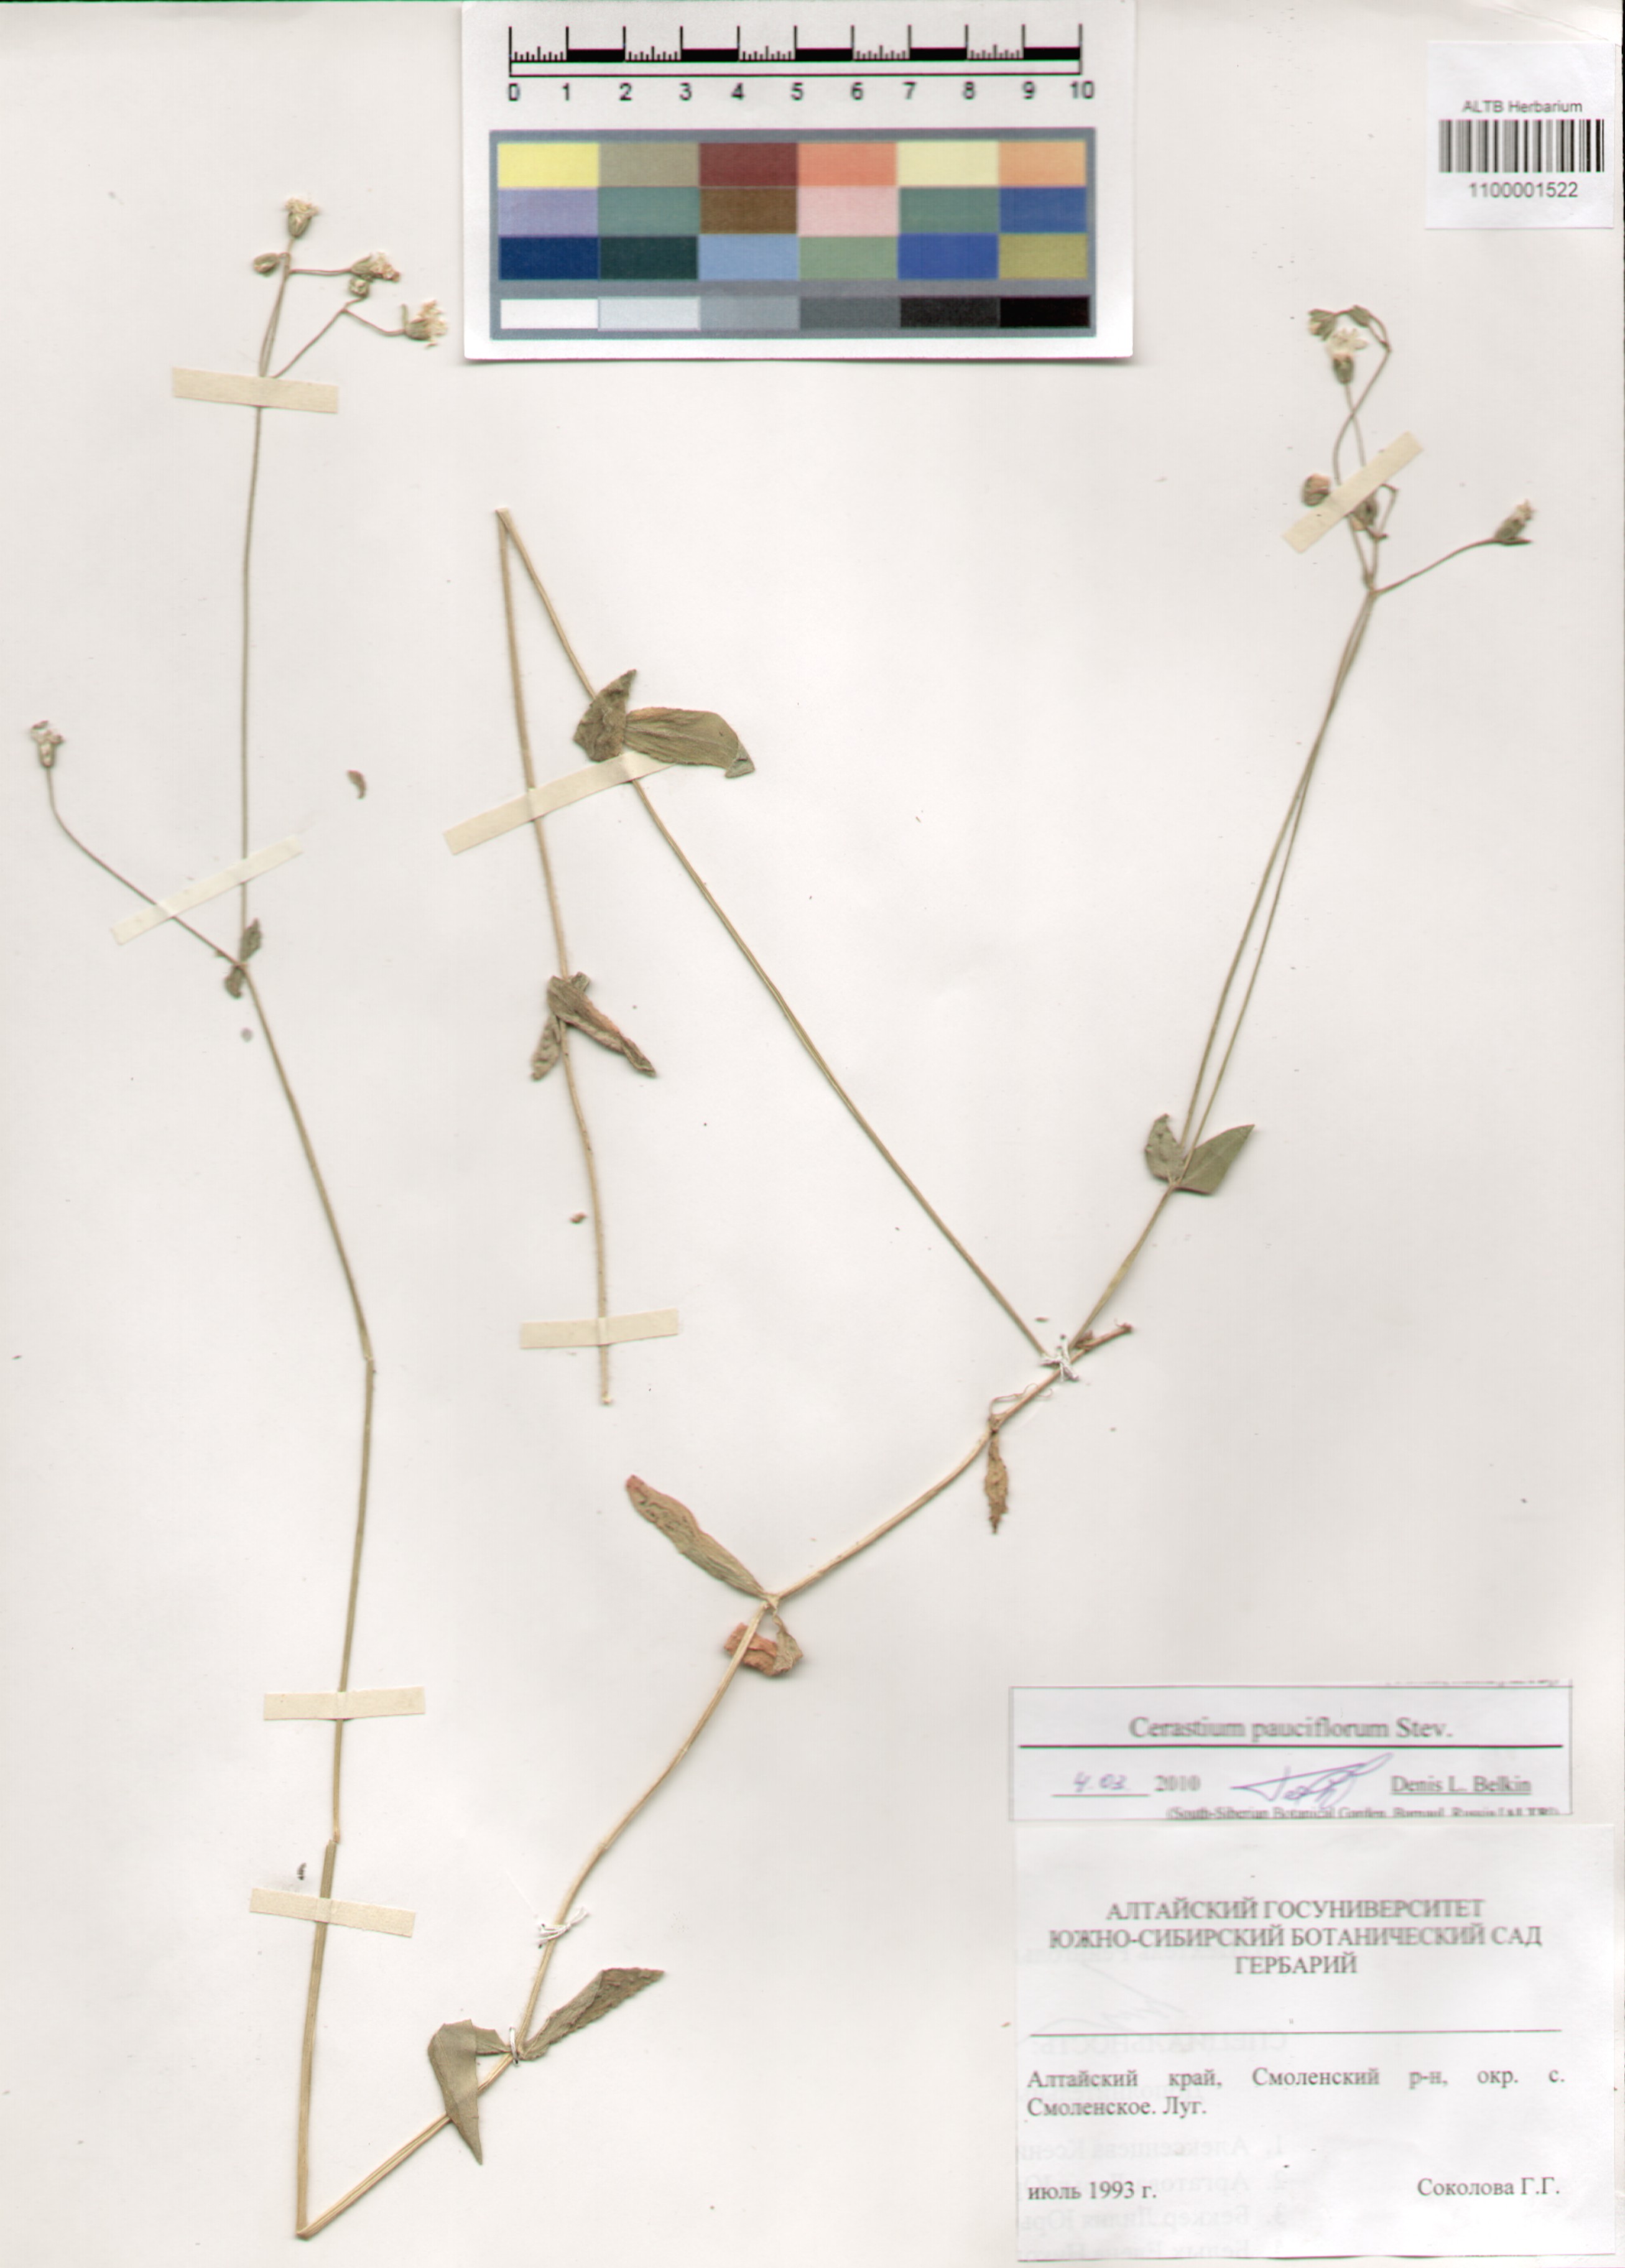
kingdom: Plantae
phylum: Tracheophyta
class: Magnoliopsida
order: Caryophyllales
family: Caryophyllaceae
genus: Cerastium
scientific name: Cerastium pauciflorum
